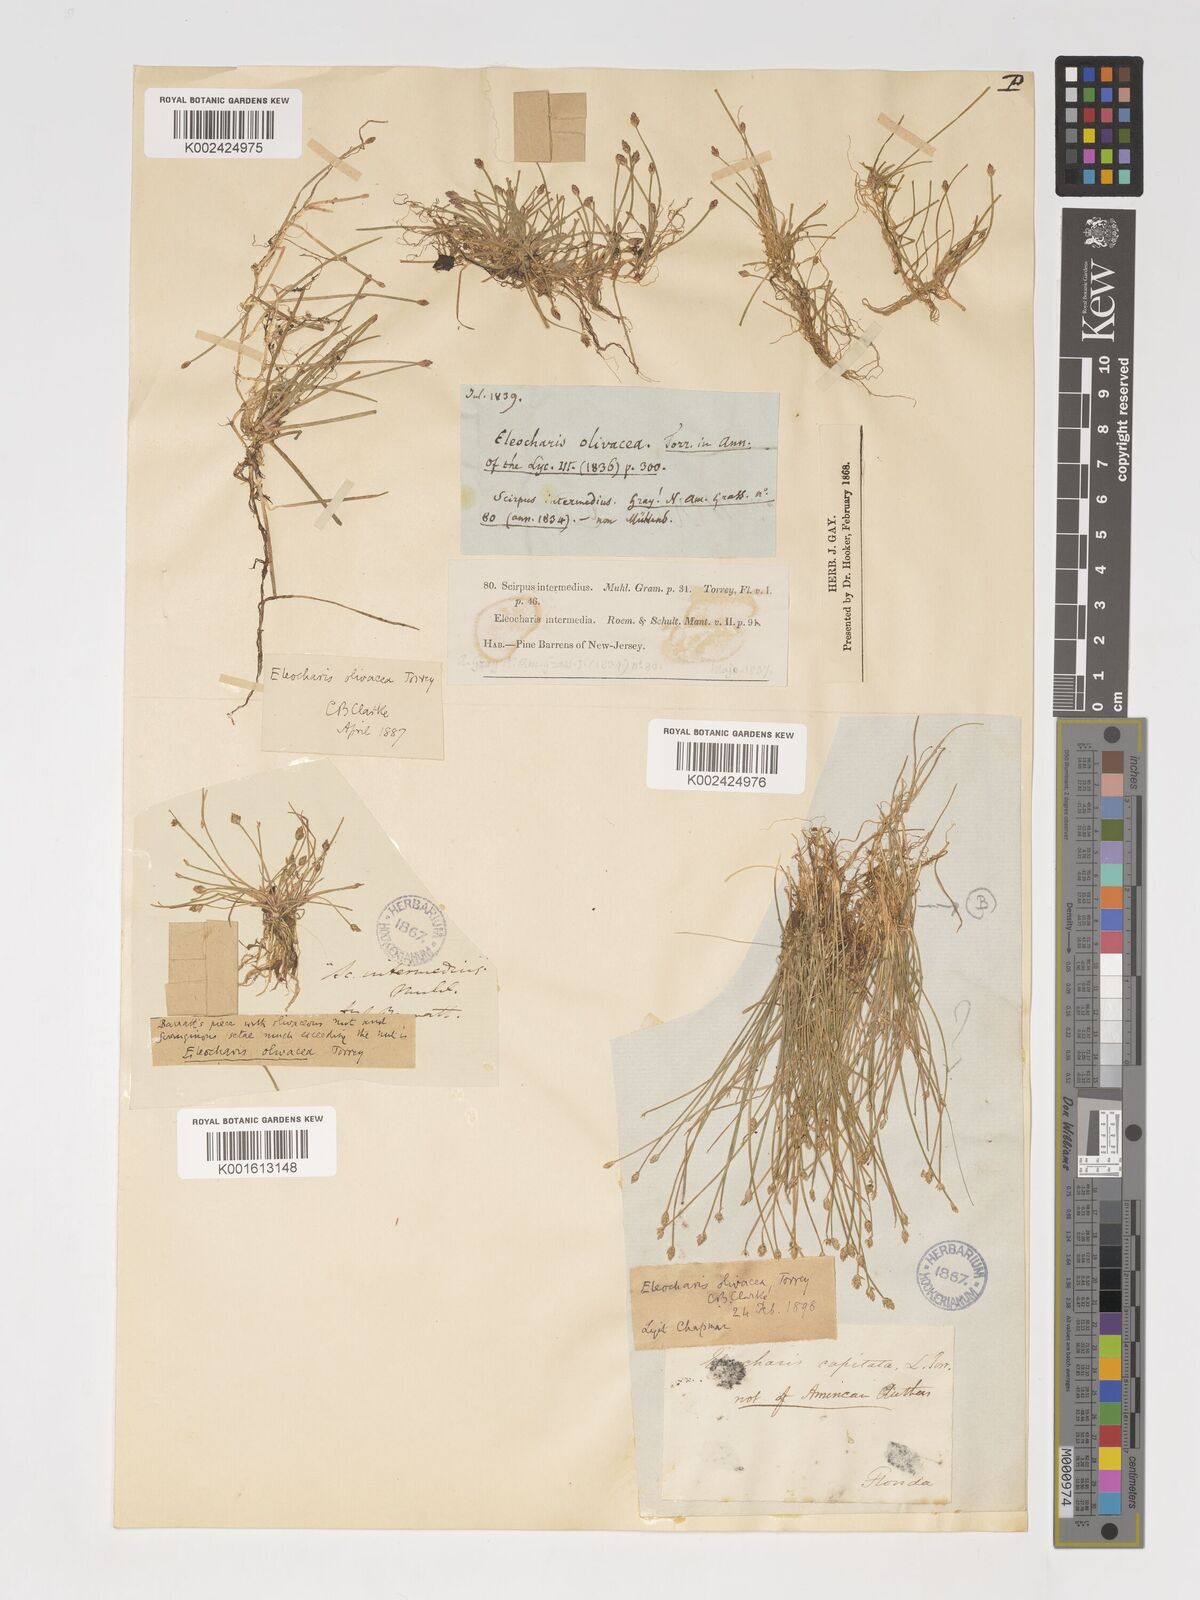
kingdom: Plantae
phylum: Tracheophyta
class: Liliopsida
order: Poales
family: Cyperaceae
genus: Eleocharis
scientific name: Eleocharis flavescens
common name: Yellow spikerush
